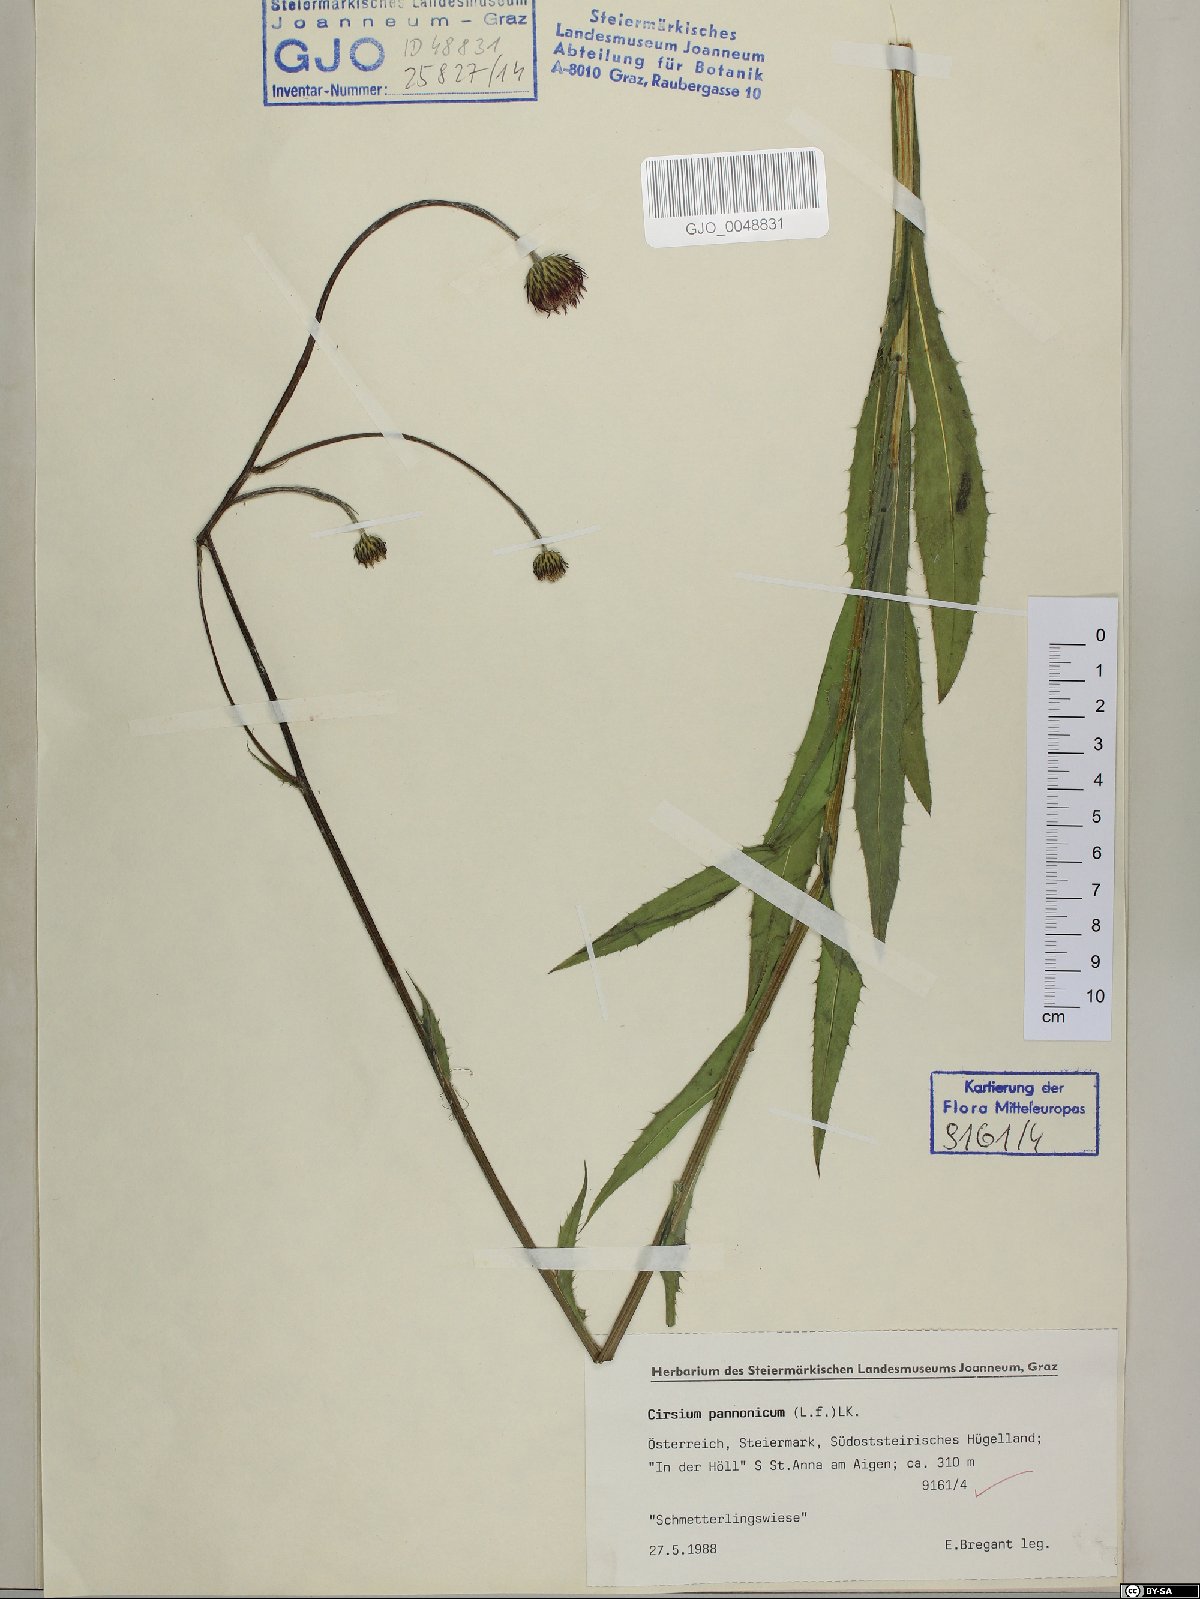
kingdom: Plantae
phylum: Tracheophyta
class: Magnoliopsida
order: Asterales
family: Asteraceae
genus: Cirsium
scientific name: Cirsium pannonicum
